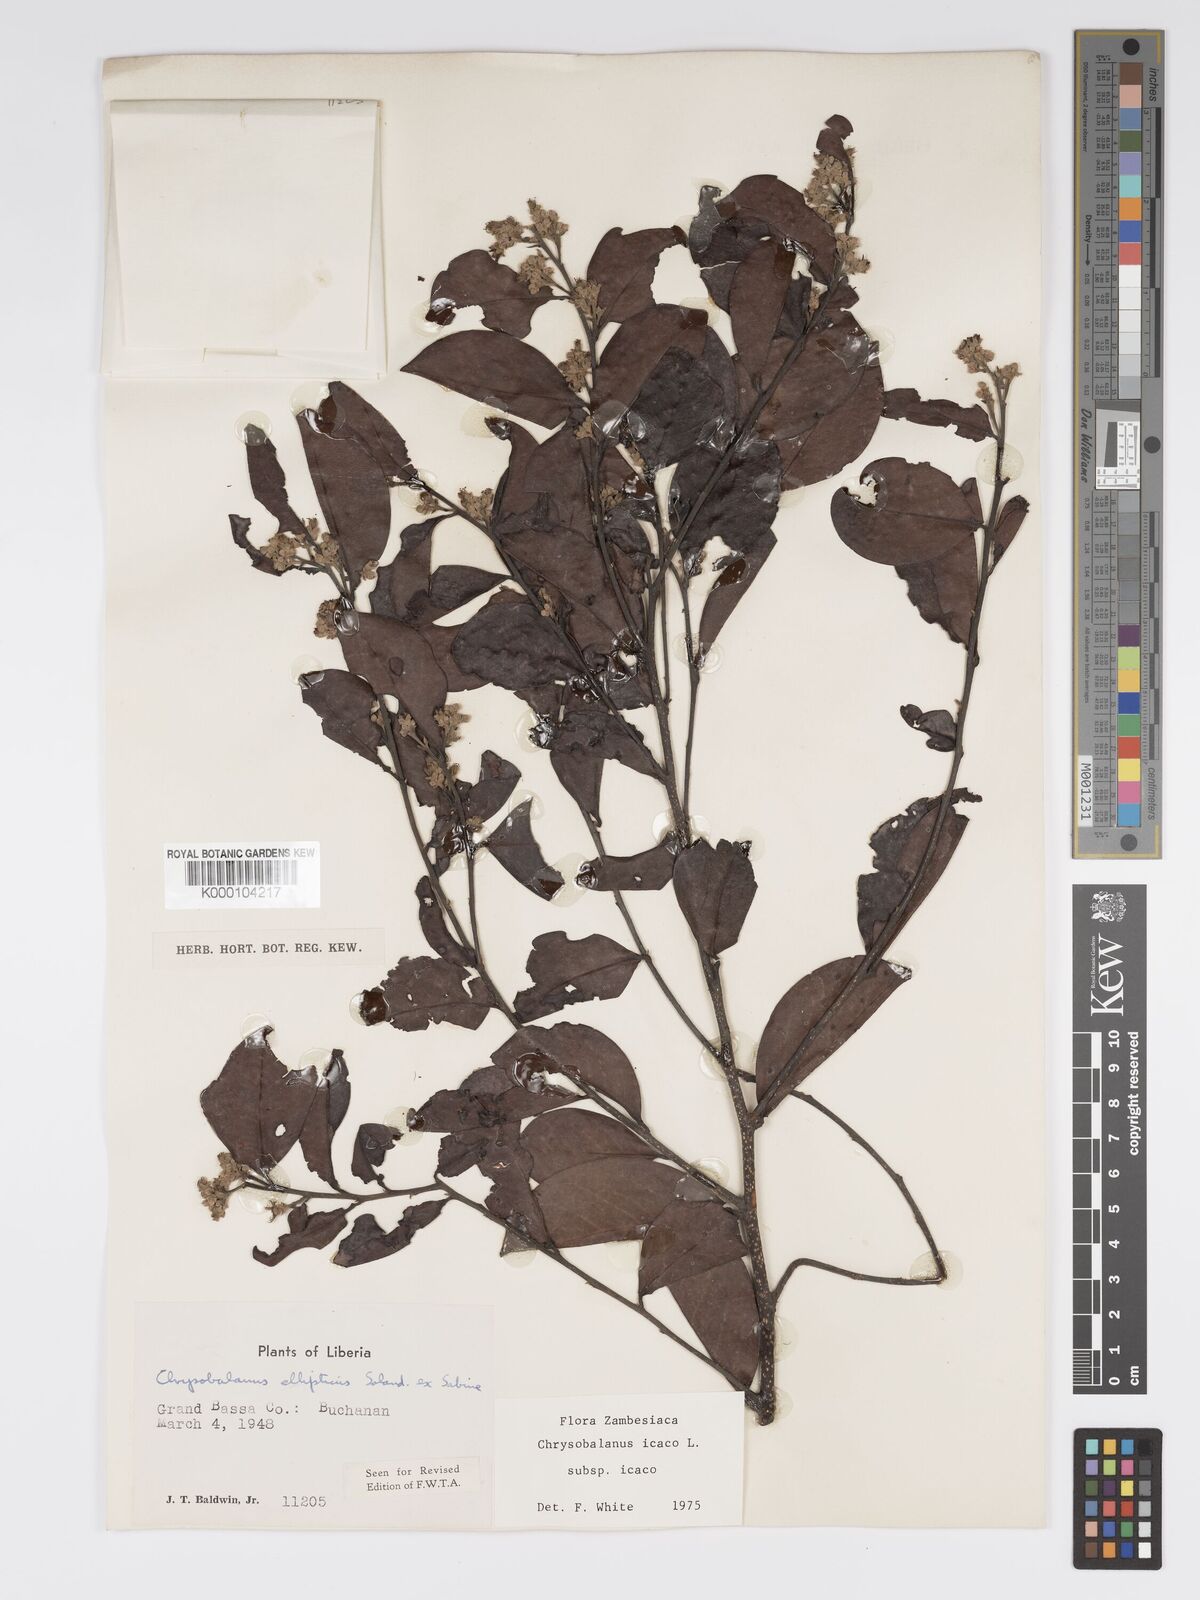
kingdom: Plantae
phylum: Tracheophyta
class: Magnoliopsida
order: Malpighiales
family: Chrysobalanaceae
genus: Chrysobalanus
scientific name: Chrysobalanus icaco
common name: Coco plum
